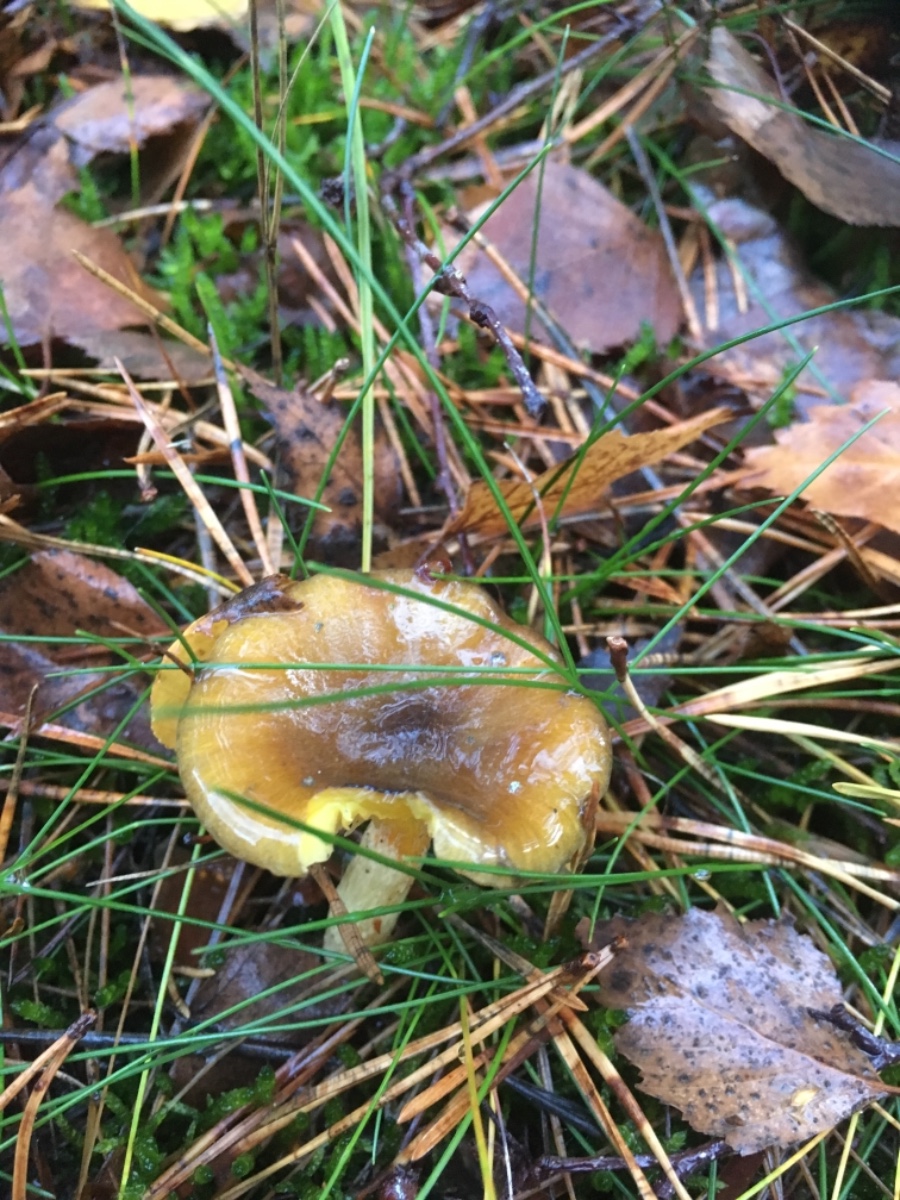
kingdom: Fungi
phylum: Basidiomycota
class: Agaricomycetes
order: Agaricales
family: Hygrophoraceae
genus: Hygrophorus
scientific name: Hygrophorus hypothejus
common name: frost-sneglehat
